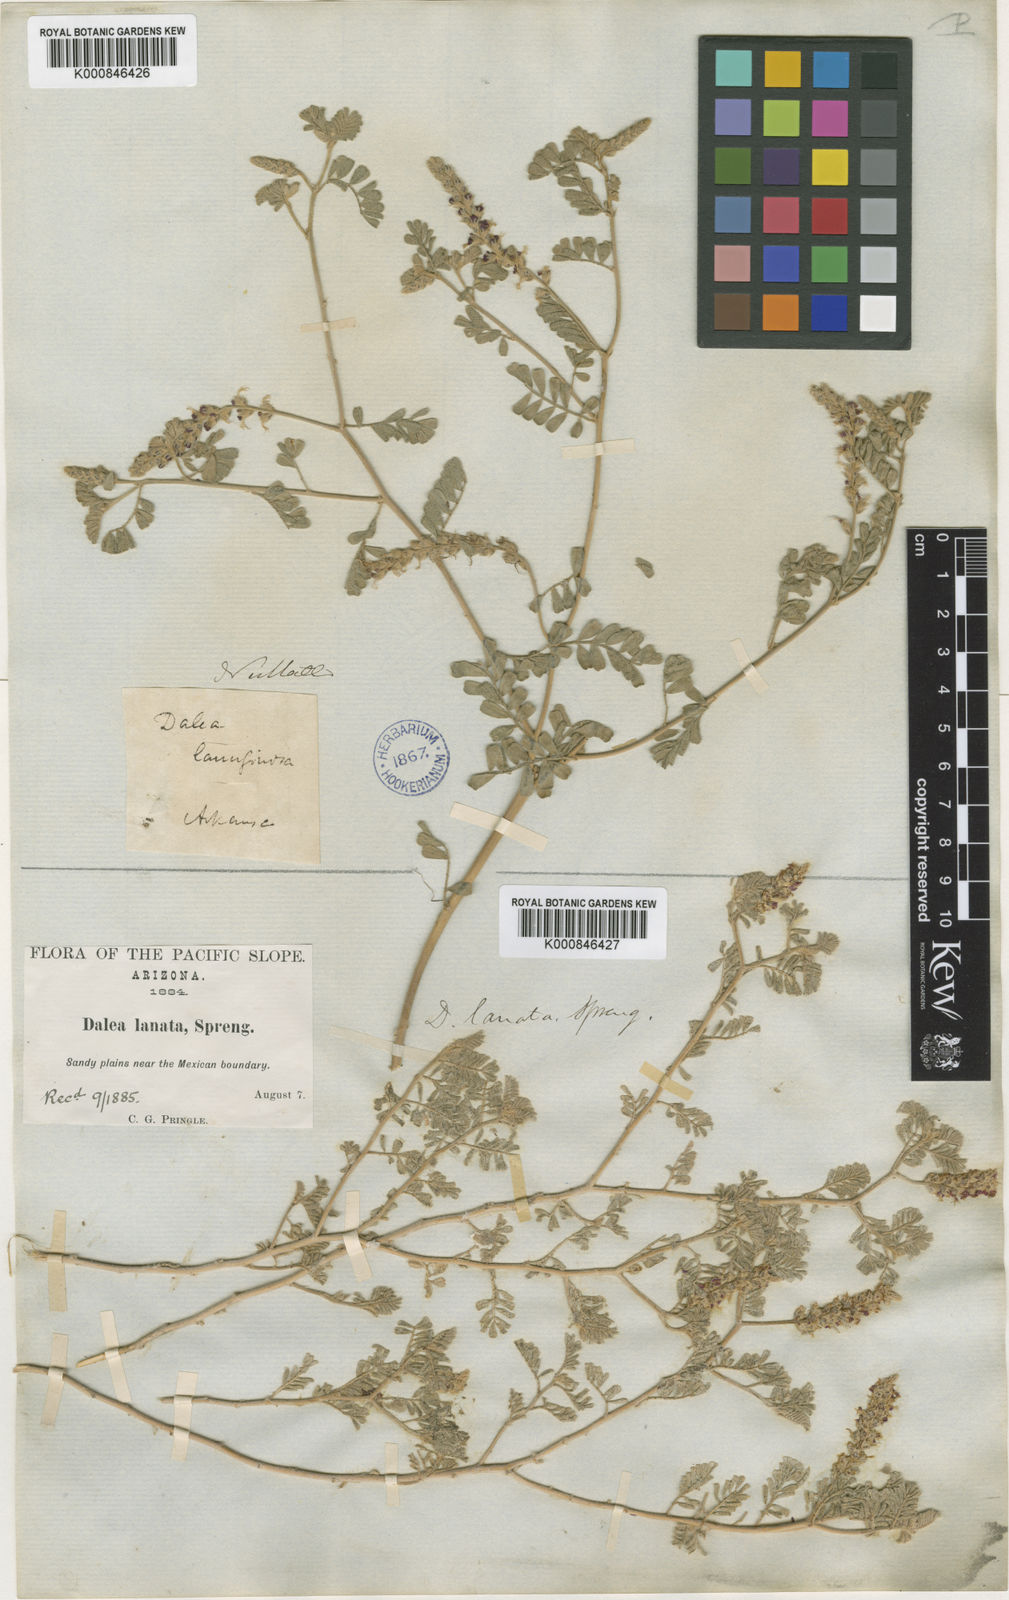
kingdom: Plantae
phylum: Tracheophyta
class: Magnoliopsida
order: Fabales
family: Fabaceae
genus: Dalea
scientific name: Dalea lanata
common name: Woolly dalea
